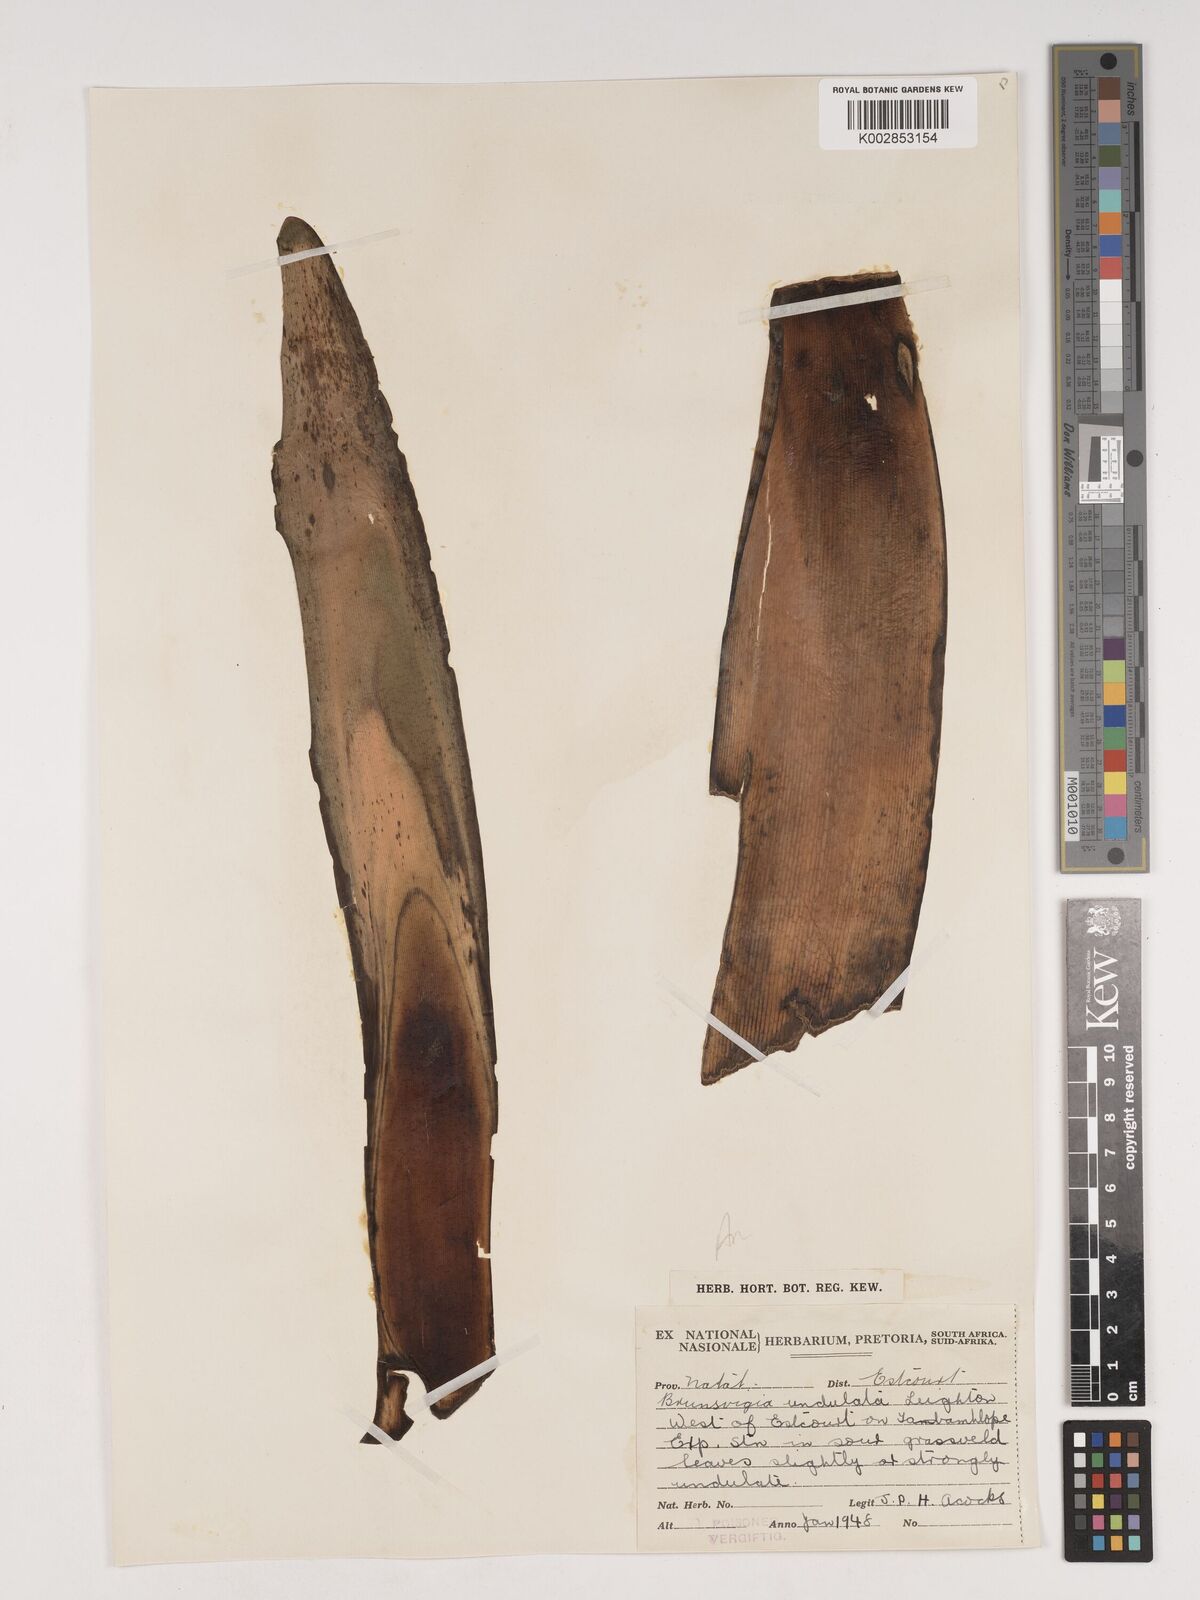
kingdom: Plantae
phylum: Tracheophyta
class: Liliopsida
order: Asparagales
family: Amaryllidaceae
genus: Brunsvigia
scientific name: Brunsvigia undulata
